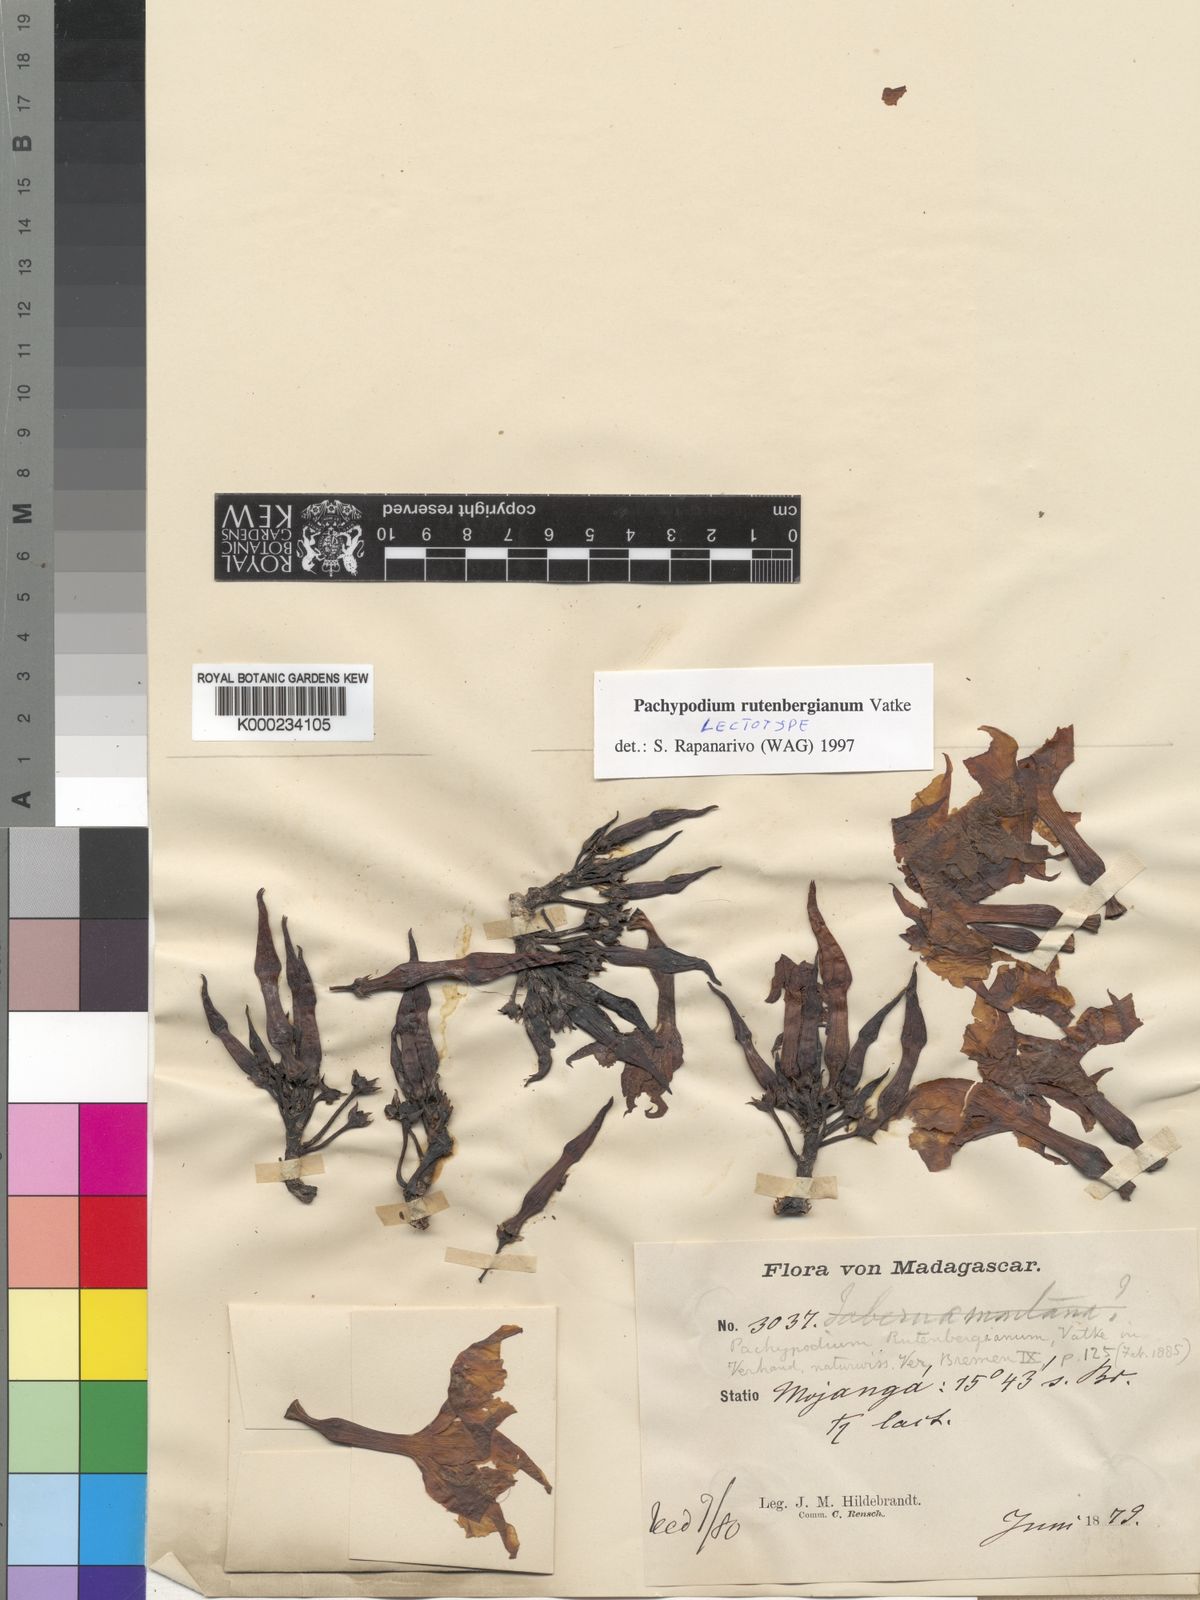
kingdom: Plantae
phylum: Tracheophyta
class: Magnoliopsida
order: Gentianales
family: Apocynaceae
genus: Pachypodium
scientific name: Pachypodium rutenbergianum
